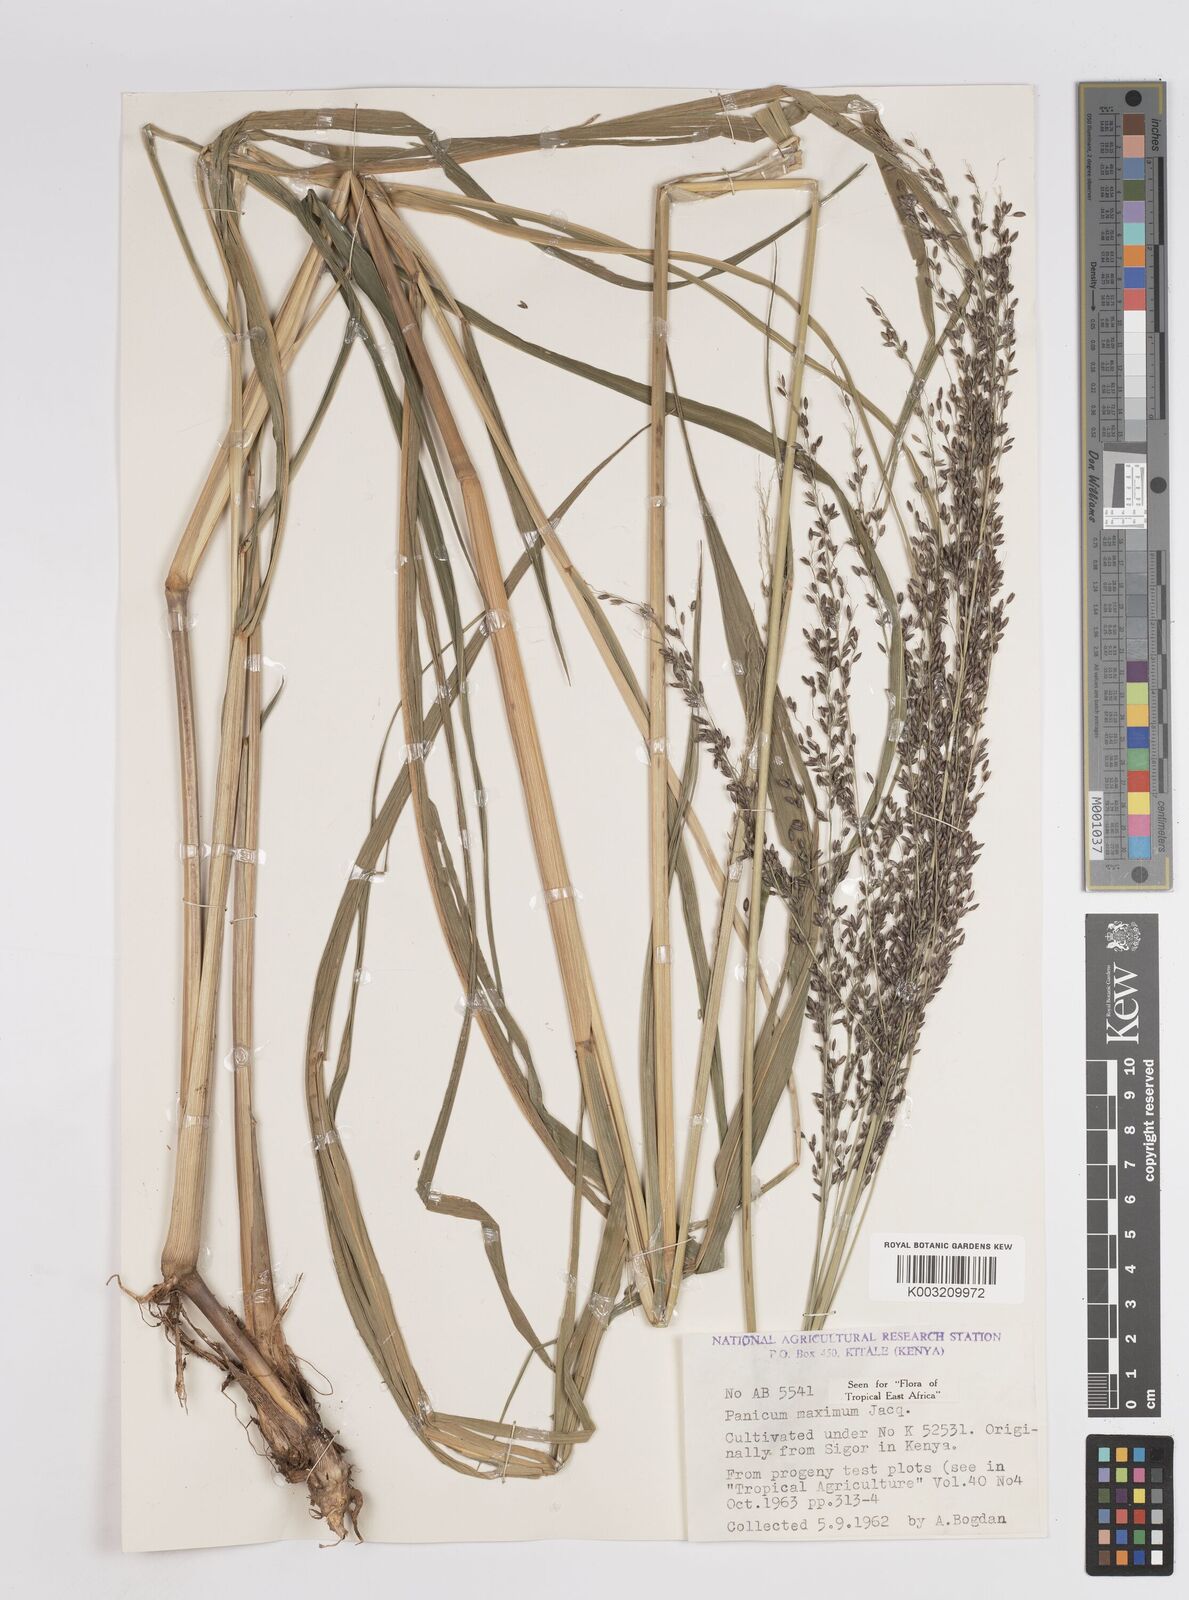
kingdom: Plantae
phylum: Tracheophyta
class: Liliopsida
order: Poales
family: Poaceae
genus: Megathyrsus
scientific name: Megathyrsus maximus
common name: Guineagrass
